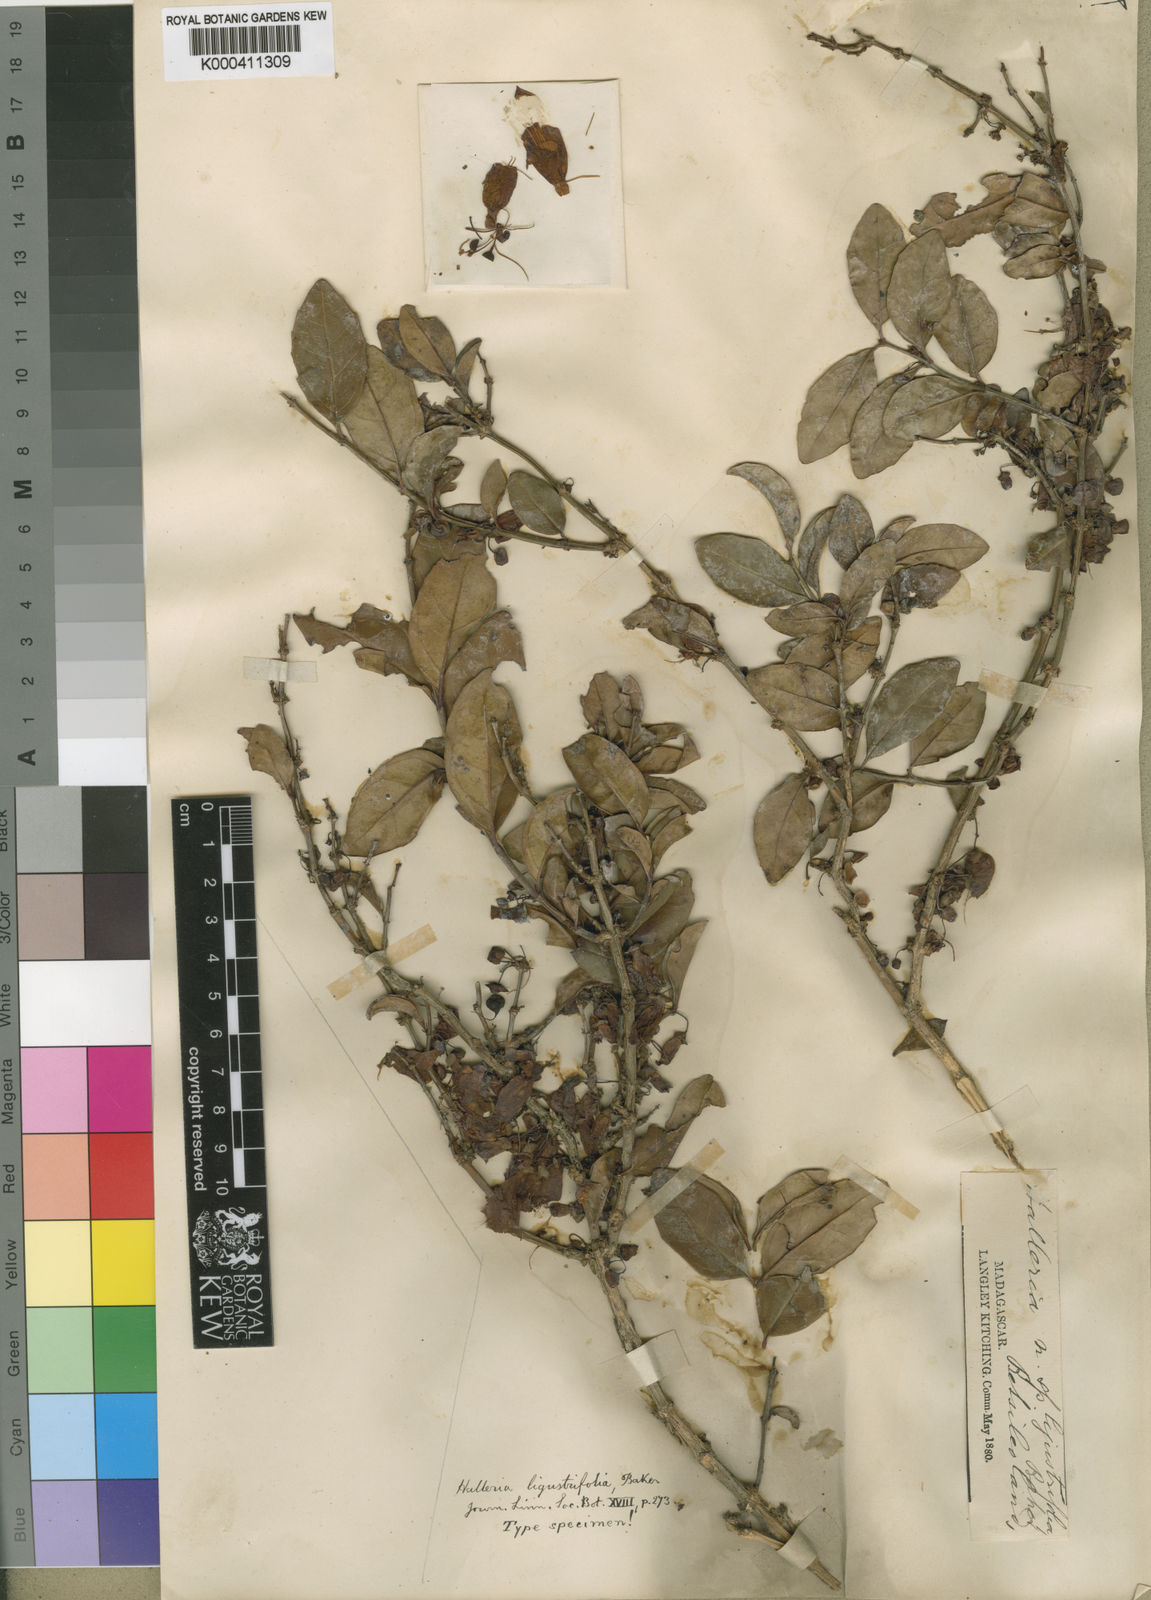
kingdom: Plantae
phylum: Tracheophyta
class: Magnoliopsida
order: Lamiales
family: Stilbaceae
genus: Halleria
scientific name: Halleria ligustrifolia
